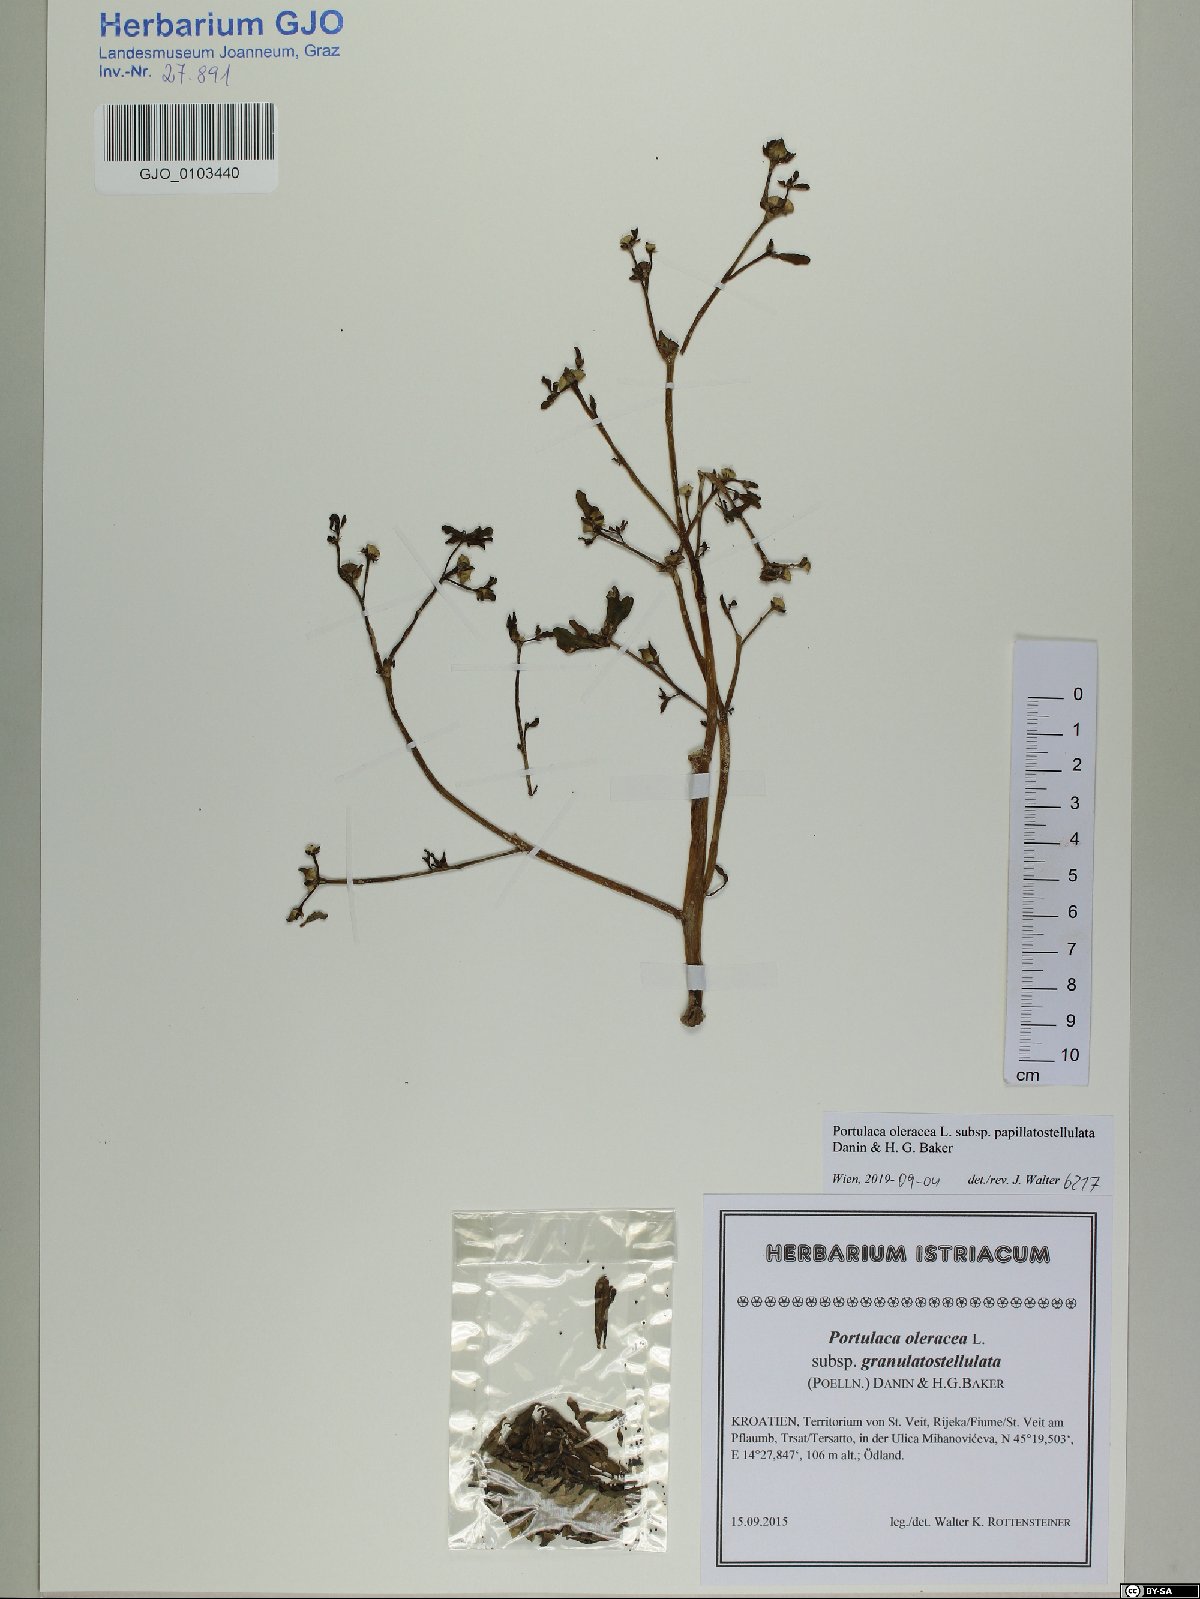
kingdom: Plantae
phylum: Tracheophyta
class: Magnoliopsida
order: Caryophyllales
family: Portulacaceae
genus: Portulaca
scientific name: Portulaca macrantha
